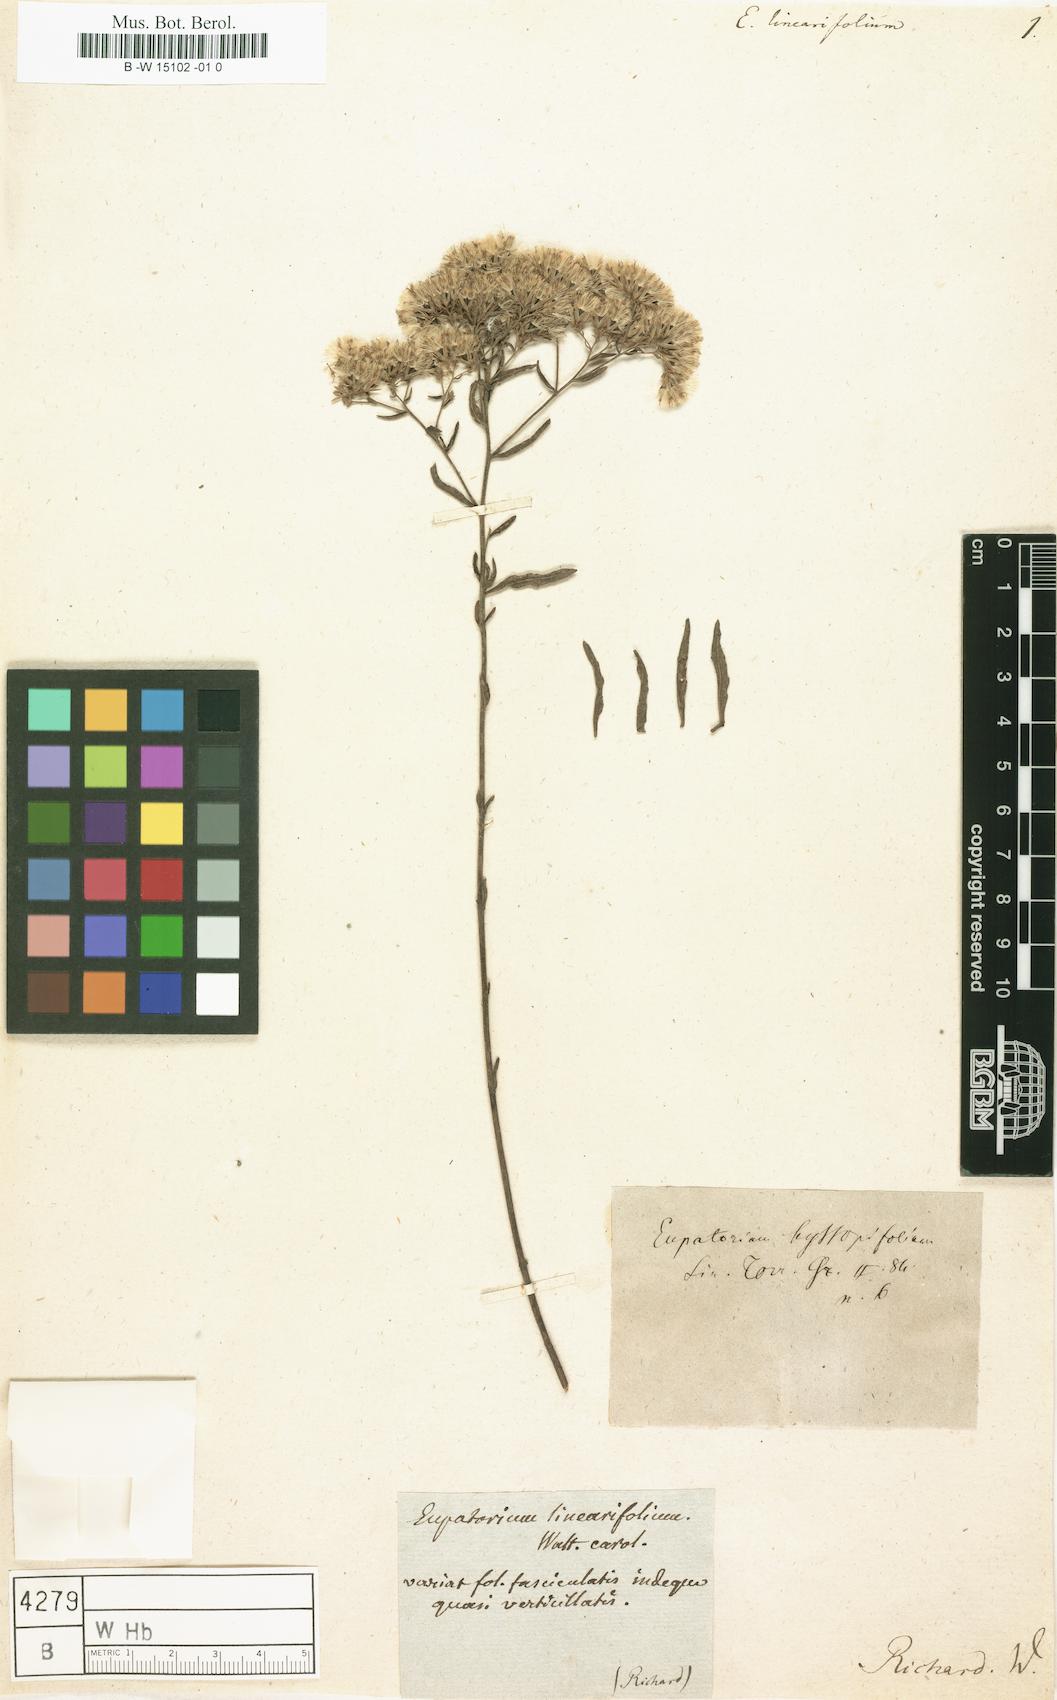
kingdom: Plantae
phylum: Tracheophyta
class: Magnoliopsida
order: Asterales
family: Asteraceae
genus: Eupatorium
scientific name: Eupatorium linearifolium
